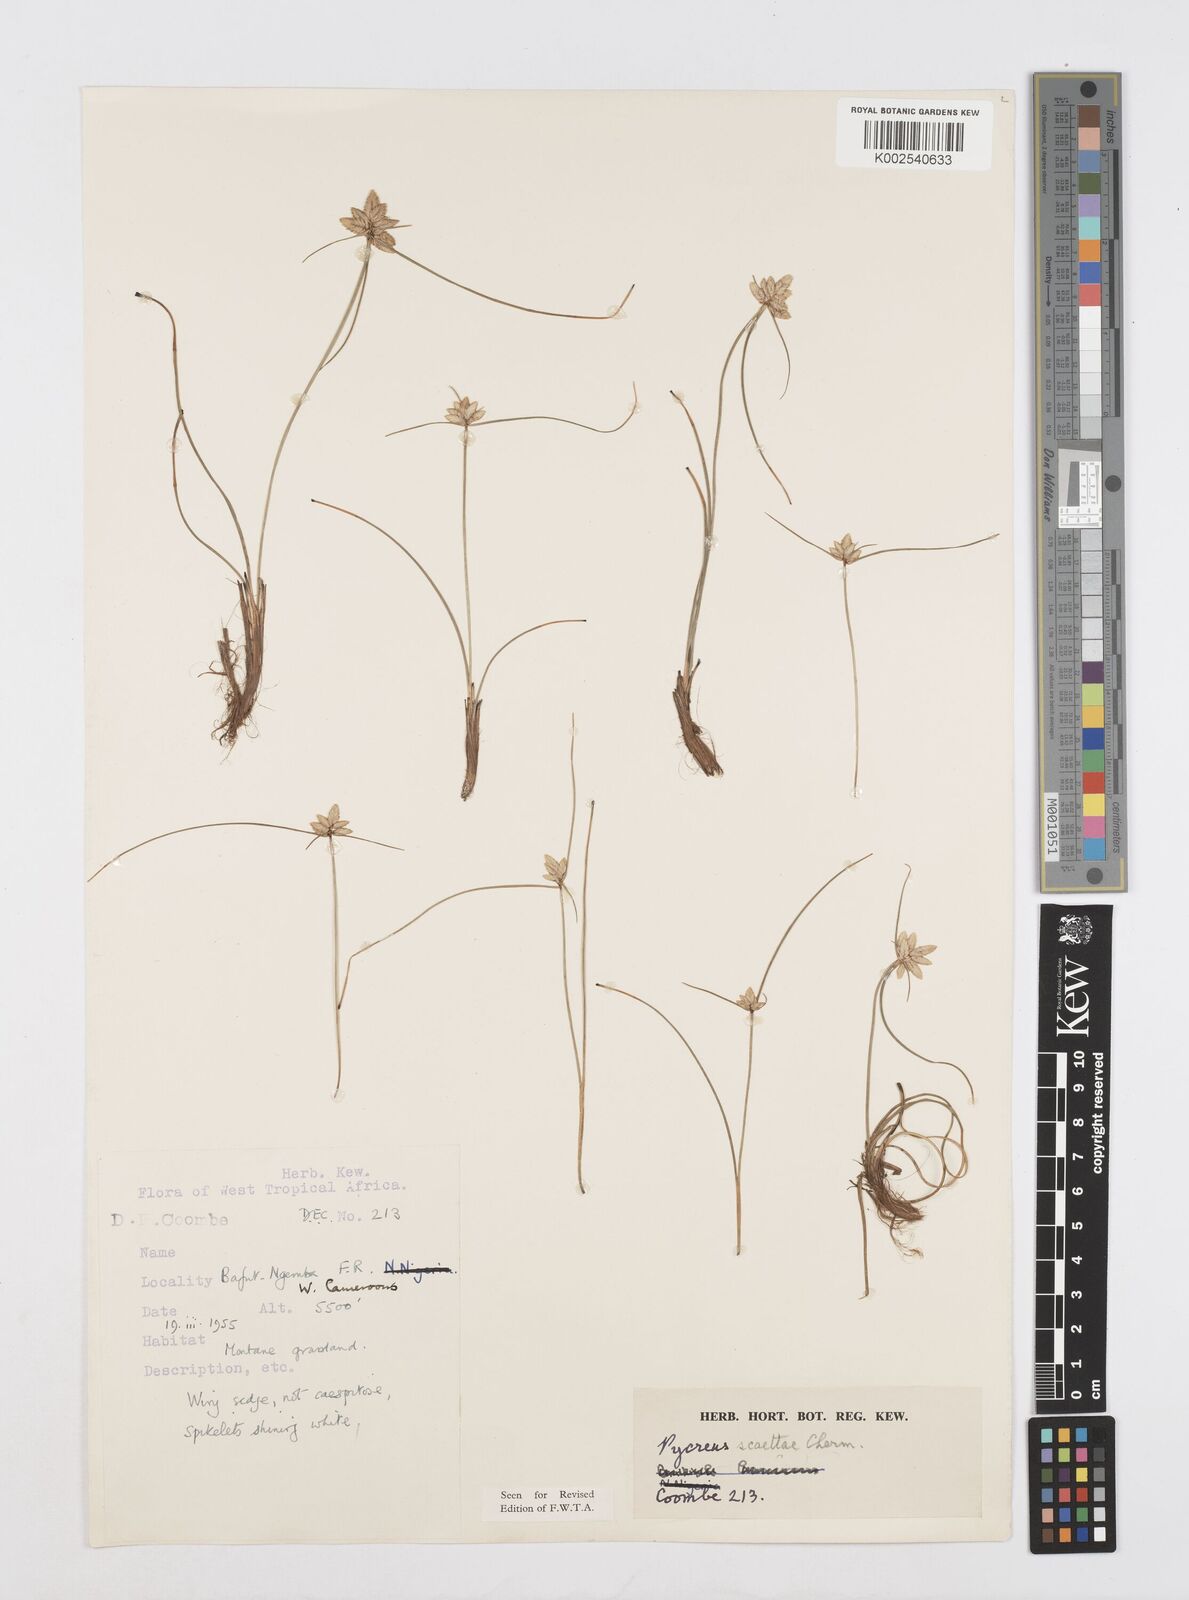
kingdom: Plantae
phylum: Tracheophyta
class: Liliopsida
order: Poales
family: Cyperaceae
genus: Cyperus
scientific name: Cyperus scaettae
